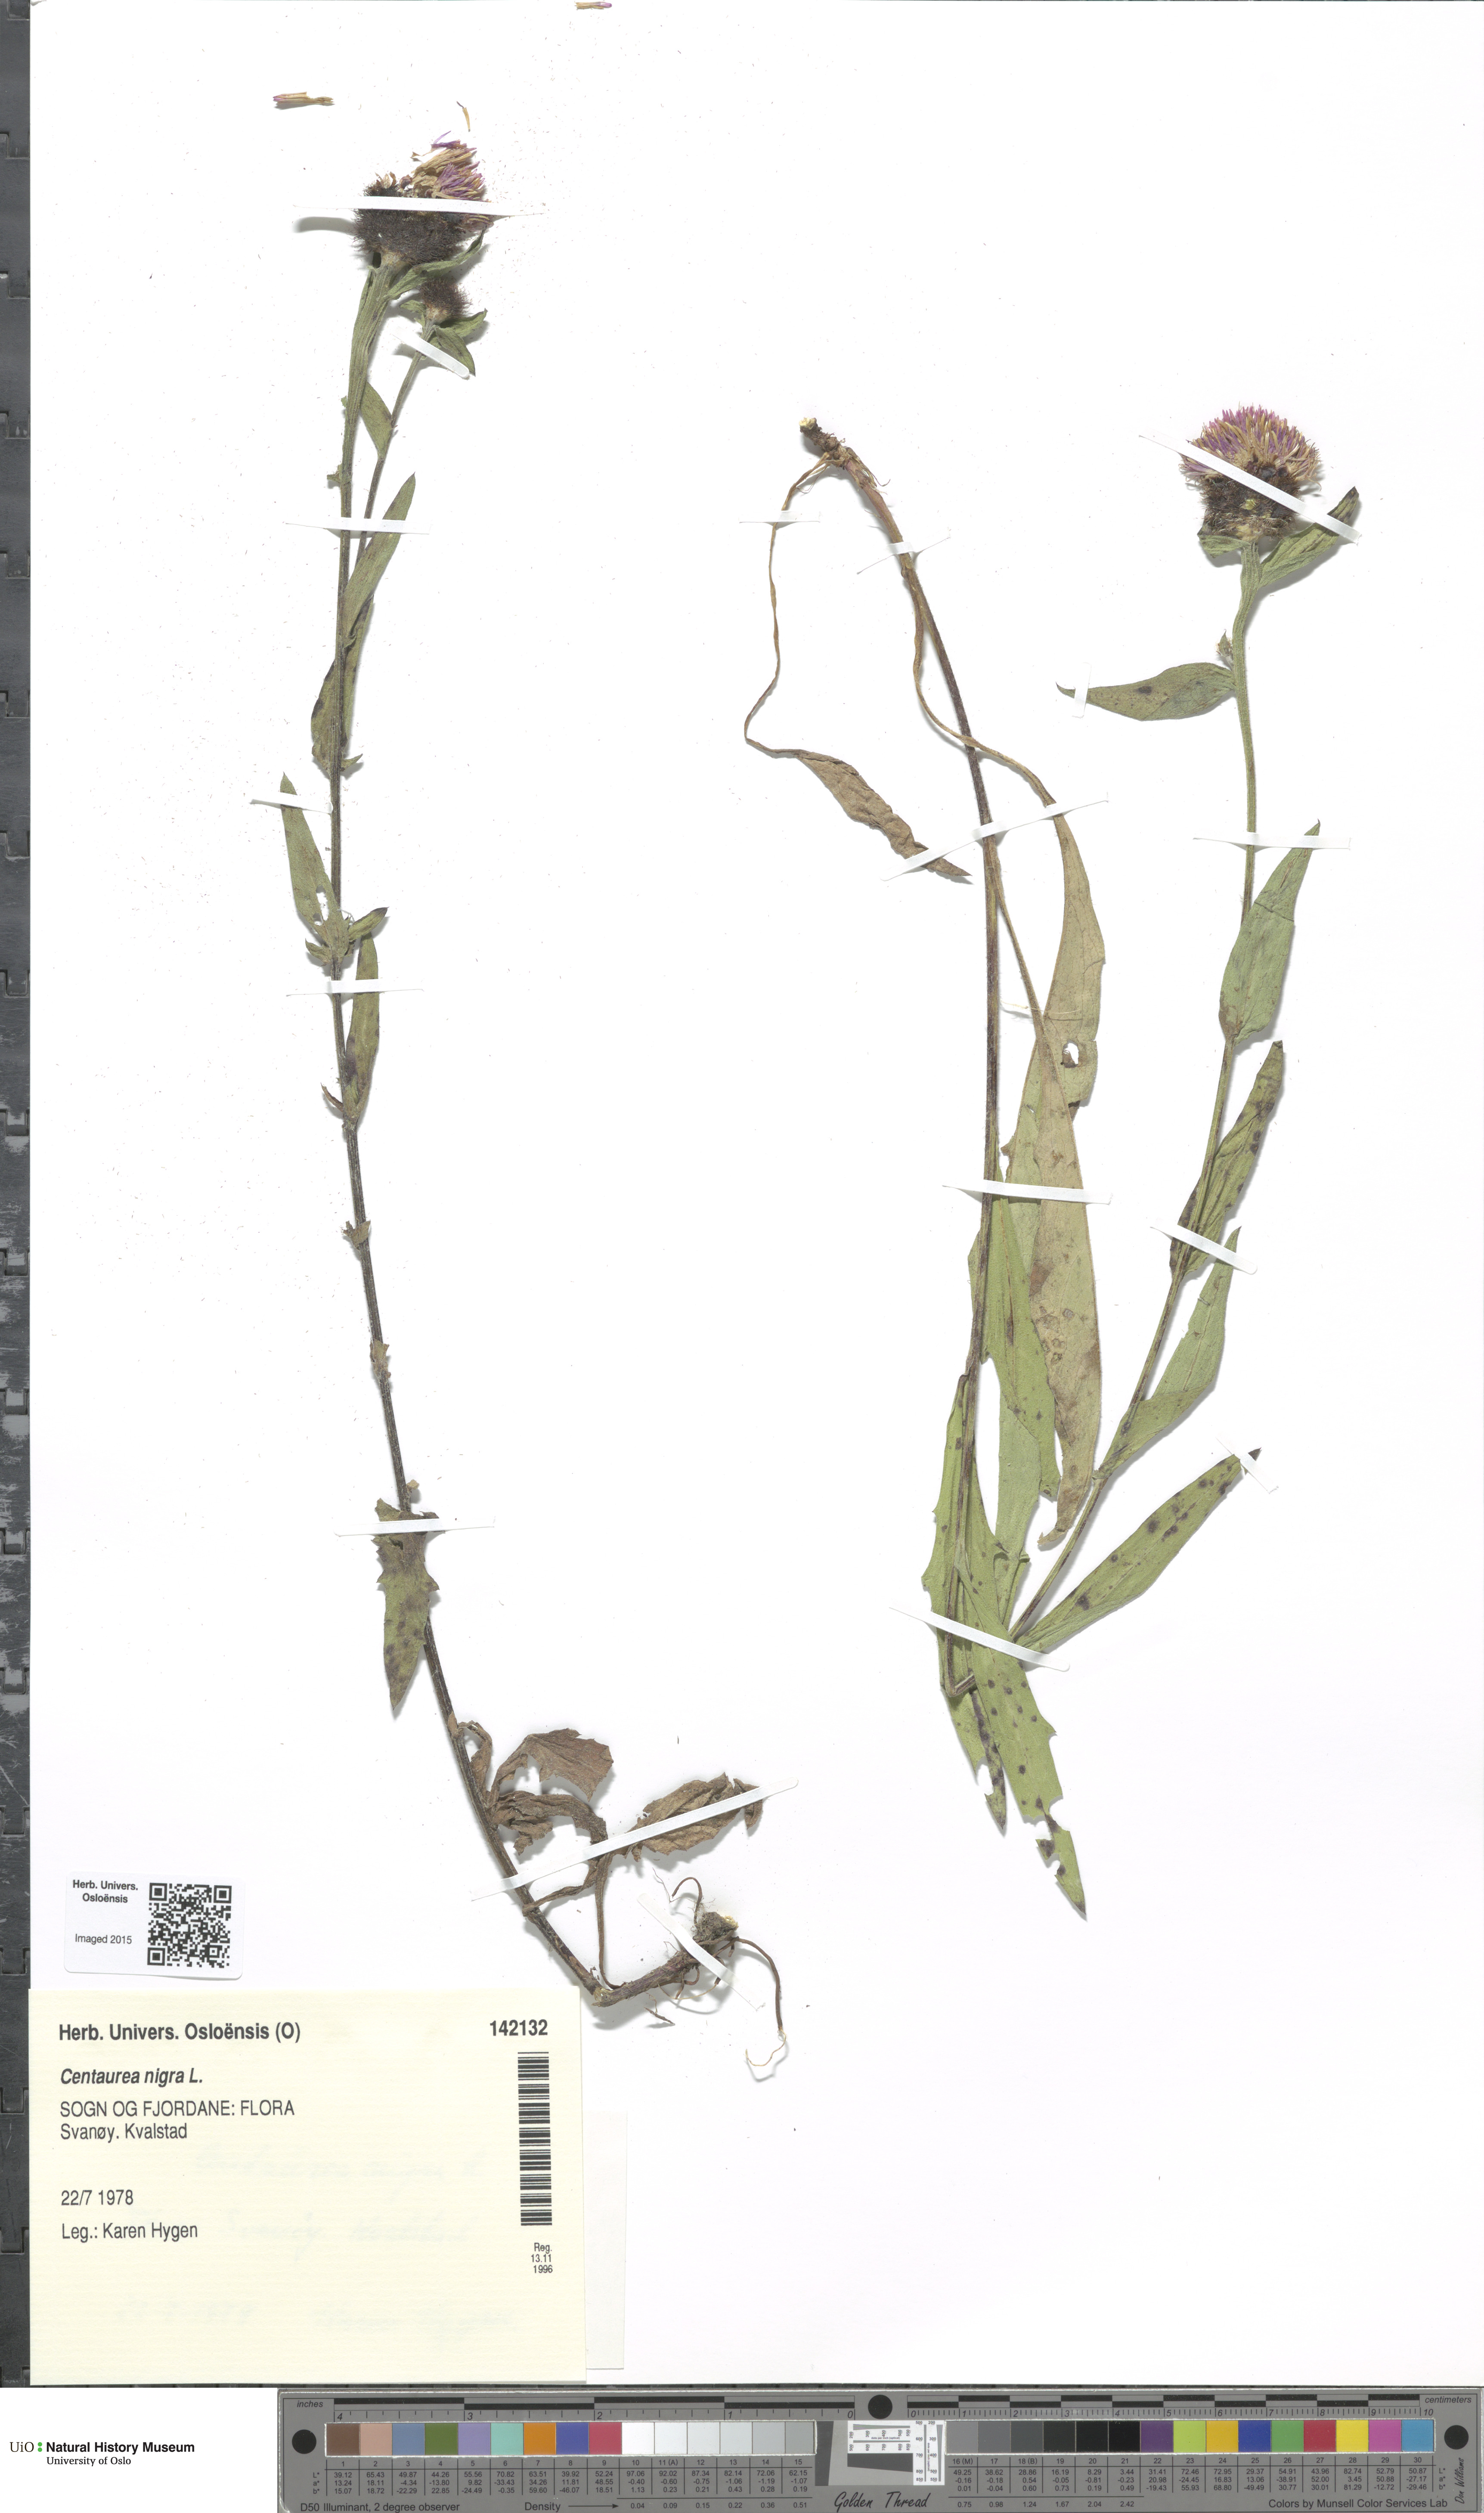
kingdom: Plantae
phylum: Tracheophyta
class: Magnoliopsida
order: Asterales
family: Asteraceae
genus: Centaurea
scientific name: Centaurea nigra
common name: Lesser knapweed
